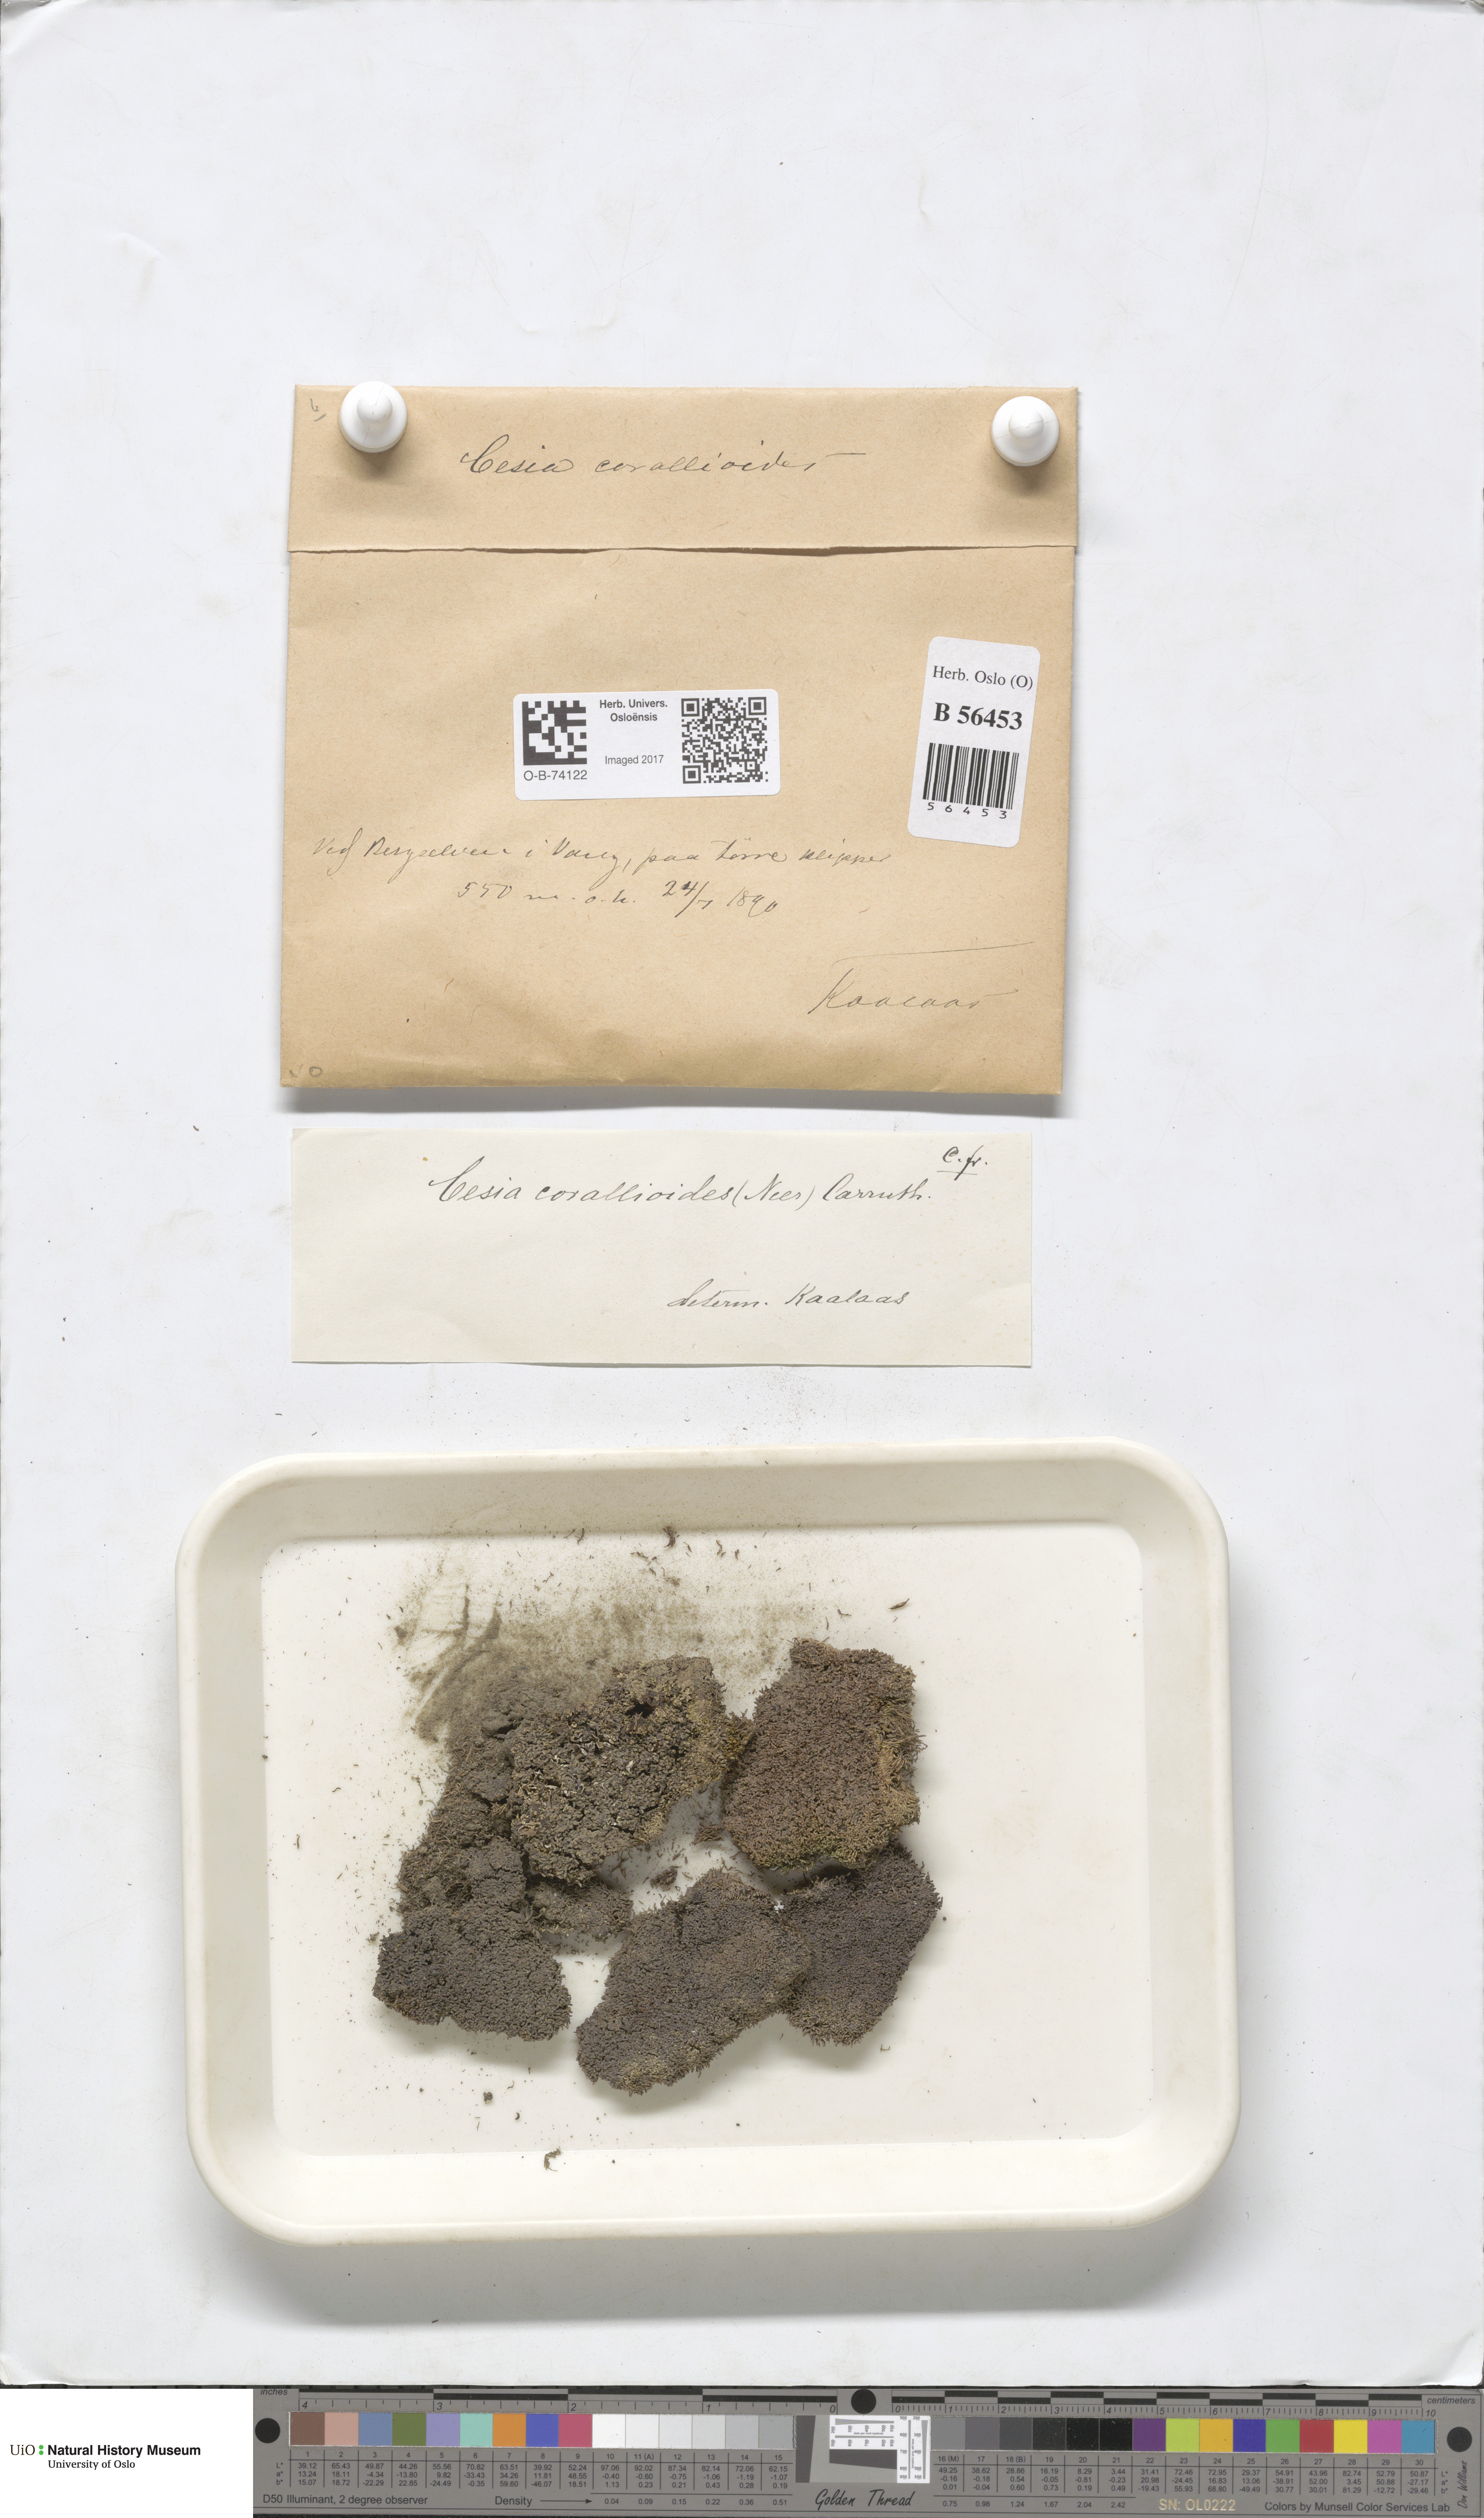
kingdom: Plantae
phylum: Marchantiophyta
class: Jungermanniopsida
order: Jungermanniales
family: Gymnomitriaceae
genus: Gymnomitrion
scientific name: Gymnomitrion corallioides
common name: Coral frostwort
